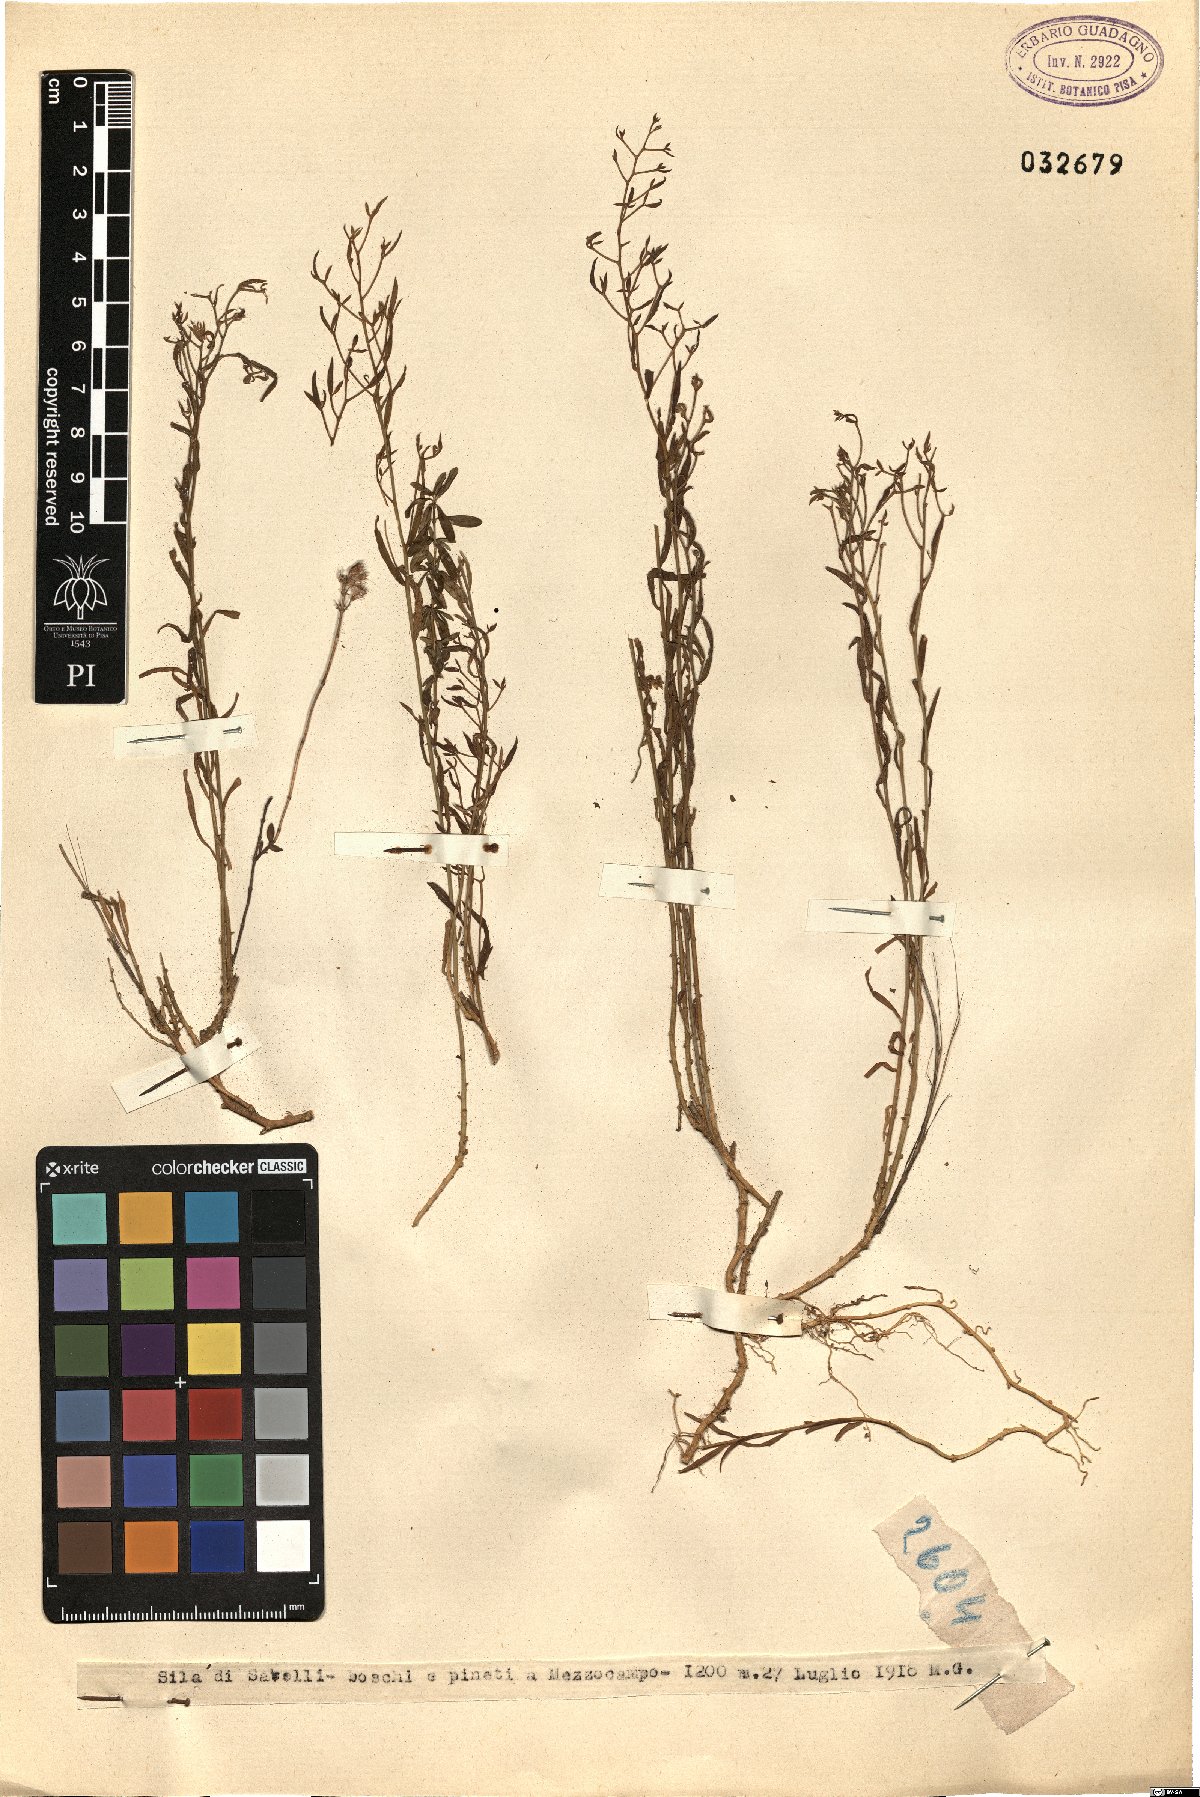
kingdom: Plantae
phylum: Tracheophyta
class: Magnoliopsida
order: Santalales
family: Thesiaceae
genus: Thesium
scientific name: Thesium
